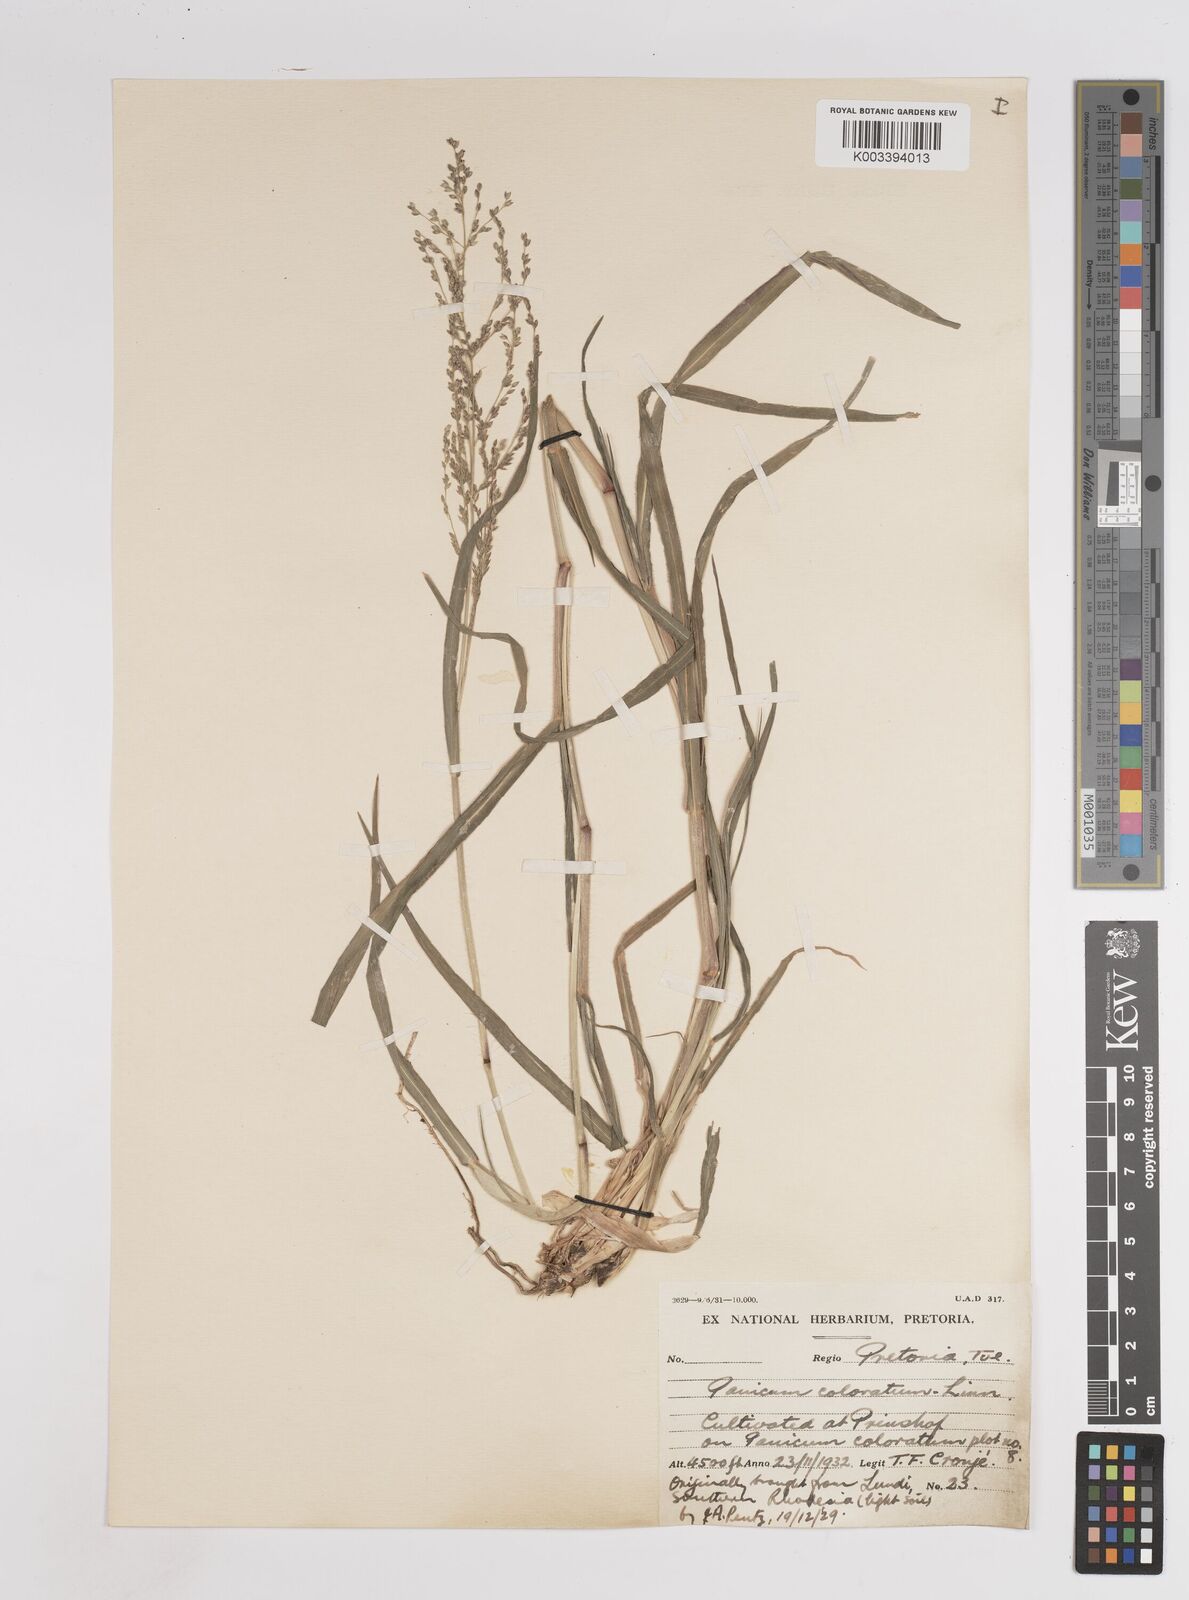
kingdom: Plantae
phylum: Tracheophyta
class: Liliopsida
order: Poales
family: Poaceae
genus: Panicum
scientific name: Panicum coloratum
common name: Kleingrass
